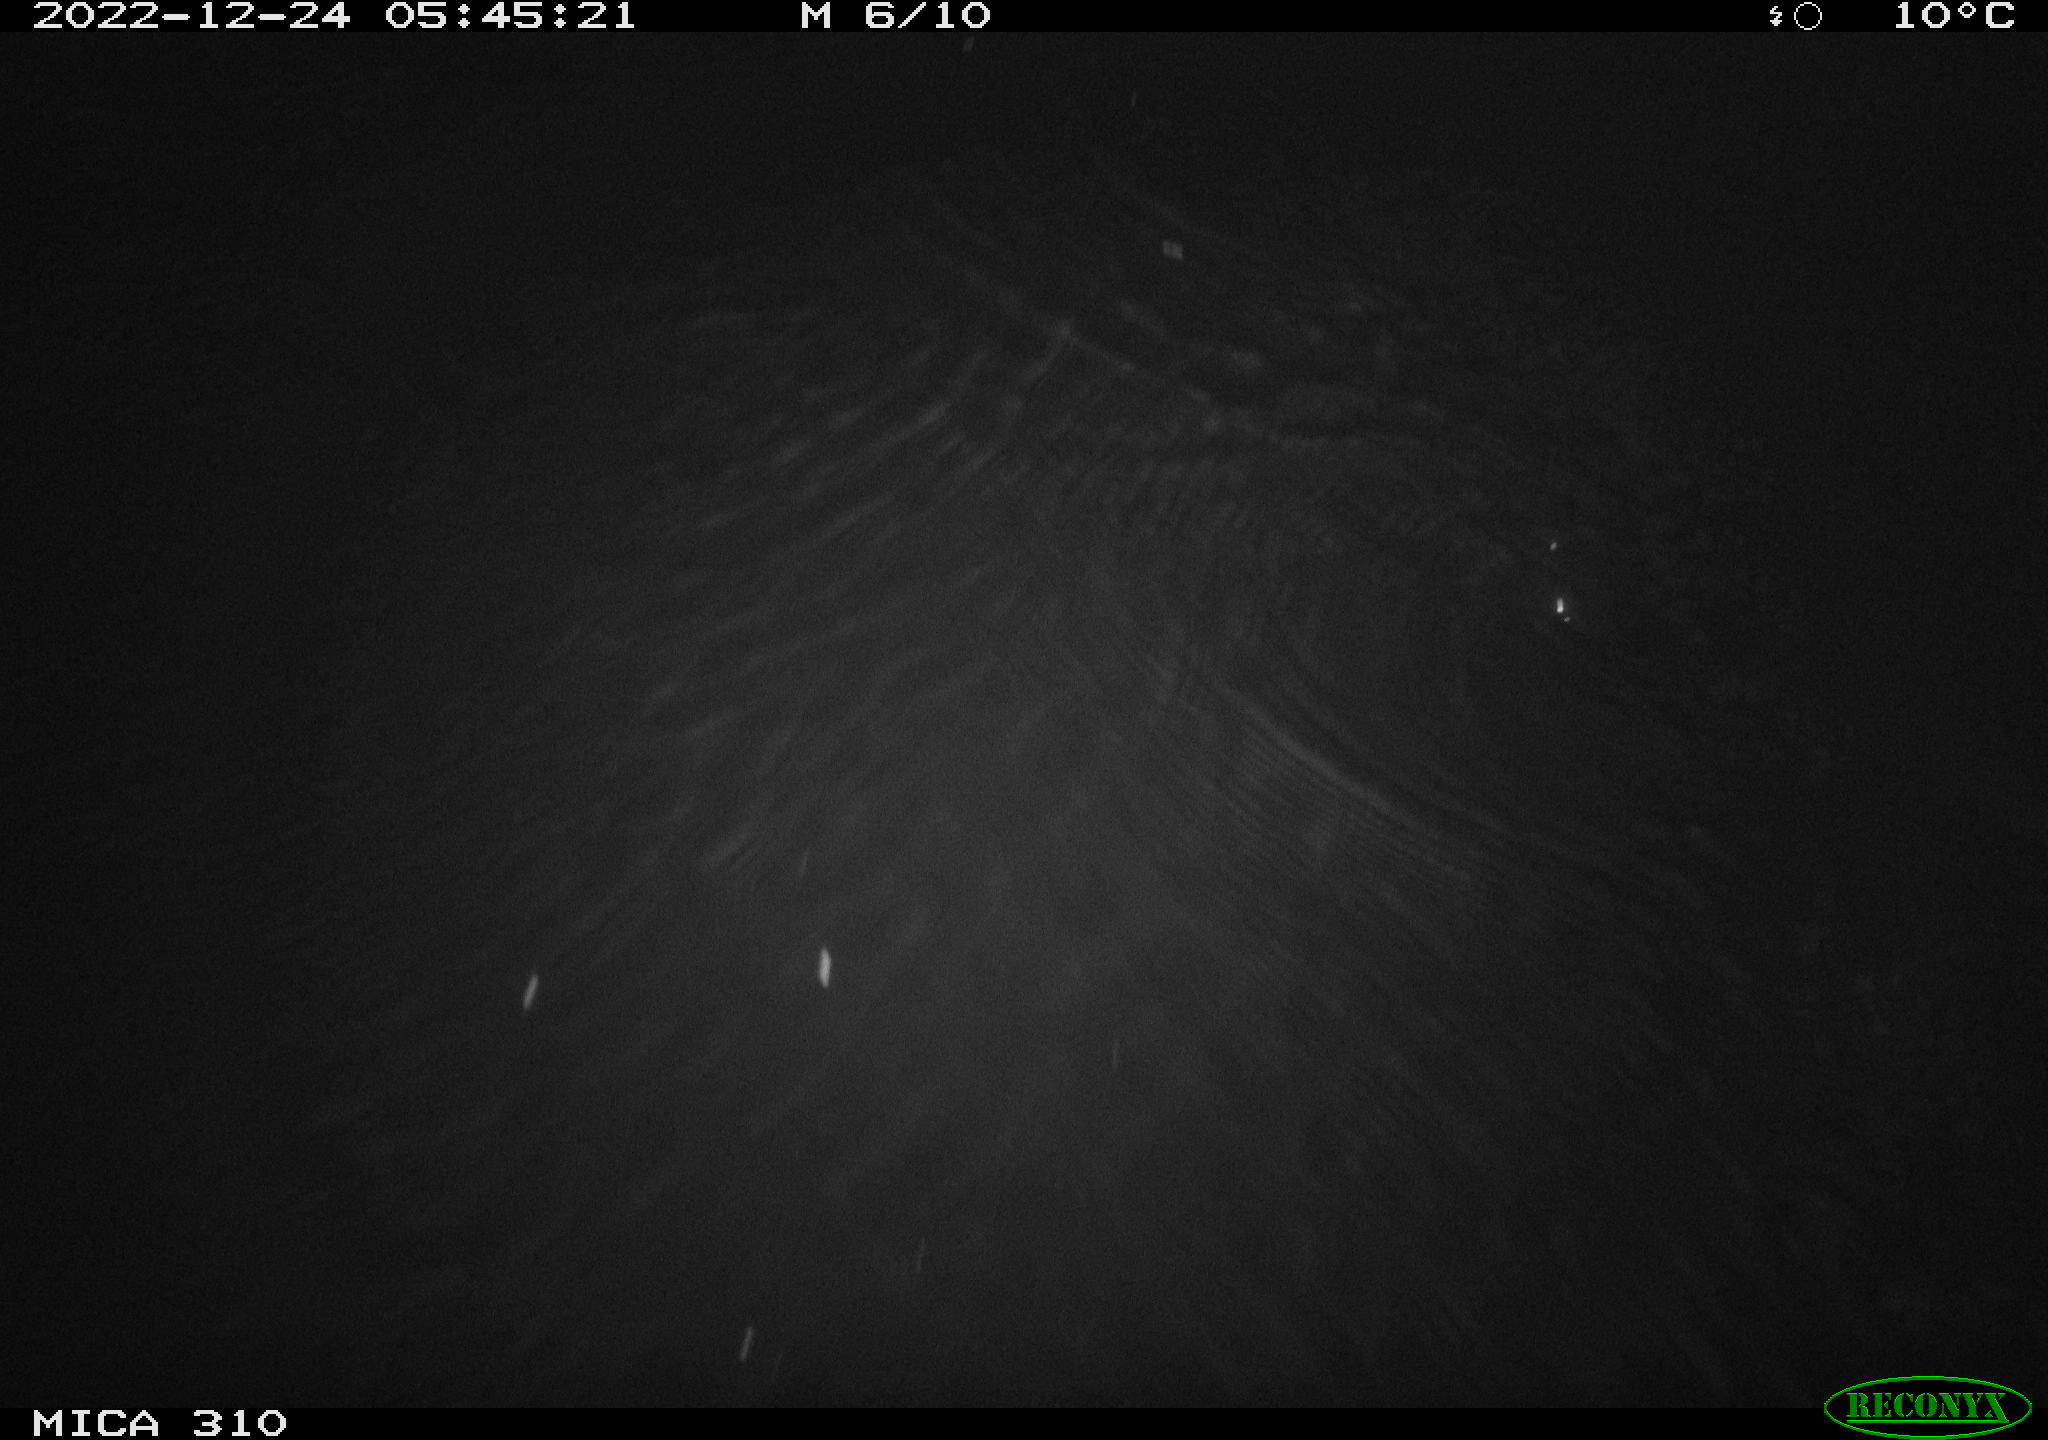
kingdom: Animalia
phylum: Chordata
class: Mammalia
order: Rodentia
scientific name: Rodentia
